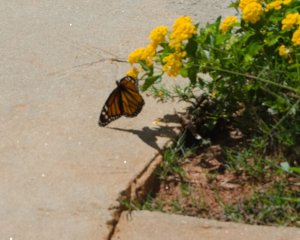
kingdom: Animalia
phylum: Arthropoda
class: Insecta
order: Lepidoptera
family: Nymphalidae
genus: Danaus
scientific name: Danaus plexippus
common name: Monarch
